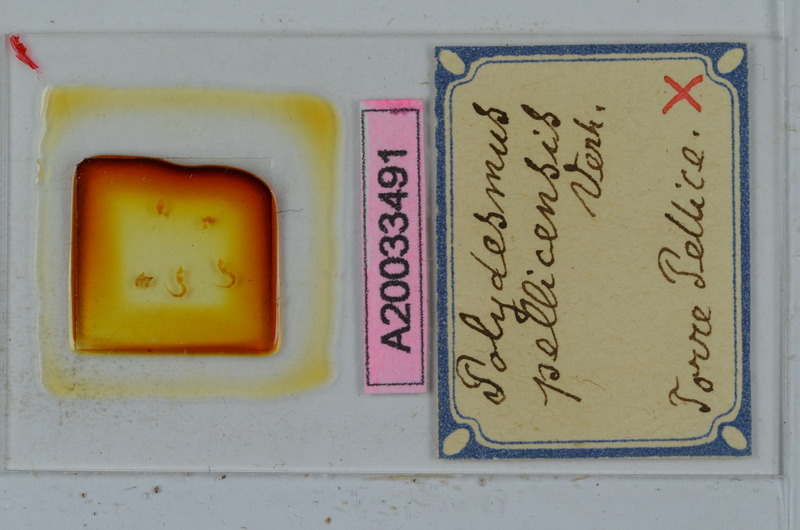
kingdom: Animalia
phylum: Arthropoda
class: Diplopoda
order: Polydesmida
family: Polydesmidae
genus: Polydesmus
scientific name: Polydesmus brevimanus
